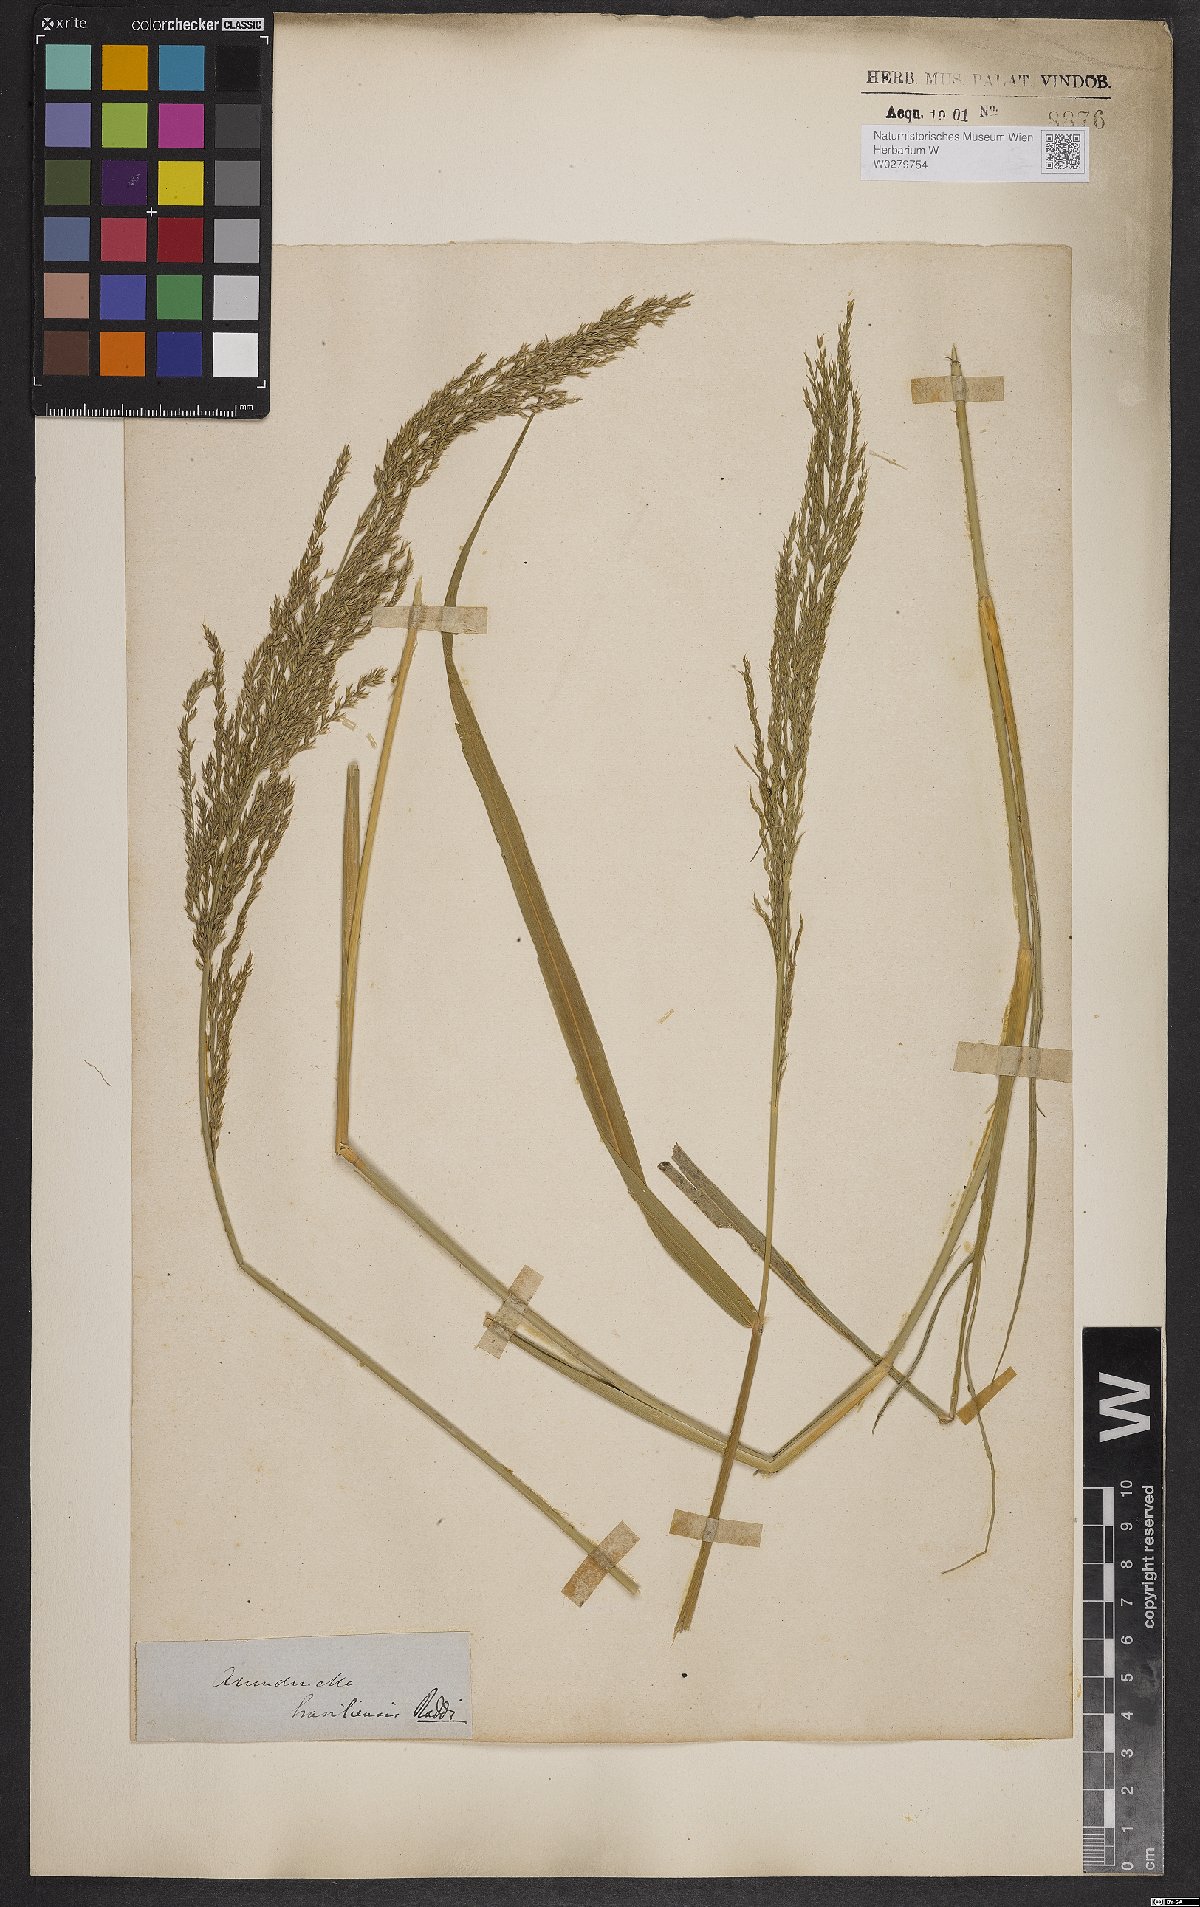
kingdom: Plantae
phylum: Tracheophyta
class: Liliopsida
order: Poales
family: Poaceae
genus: Arundinella
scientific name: Arundinella hispida
